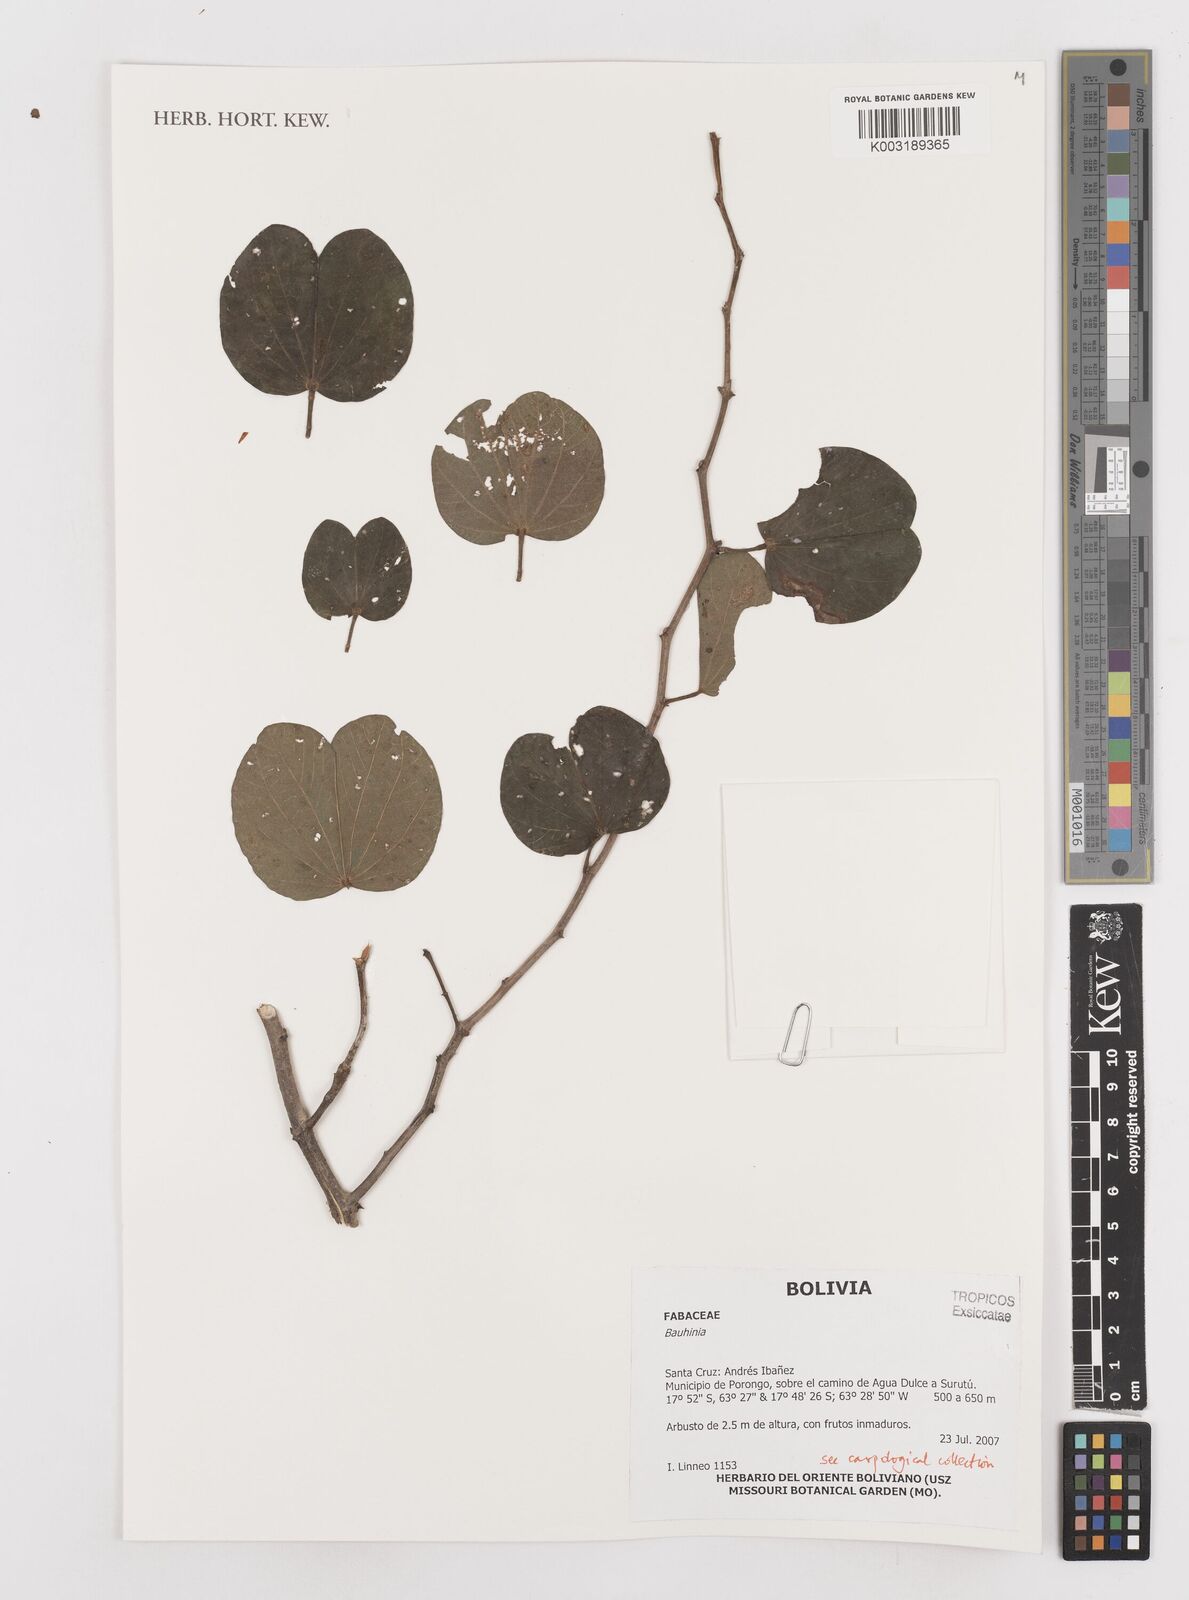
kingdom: Plantae
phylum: Tracheophyta
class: Magnoliopsida
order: Fabales
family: Fabaceae
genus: Bauhinia
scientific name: Bauhinia
